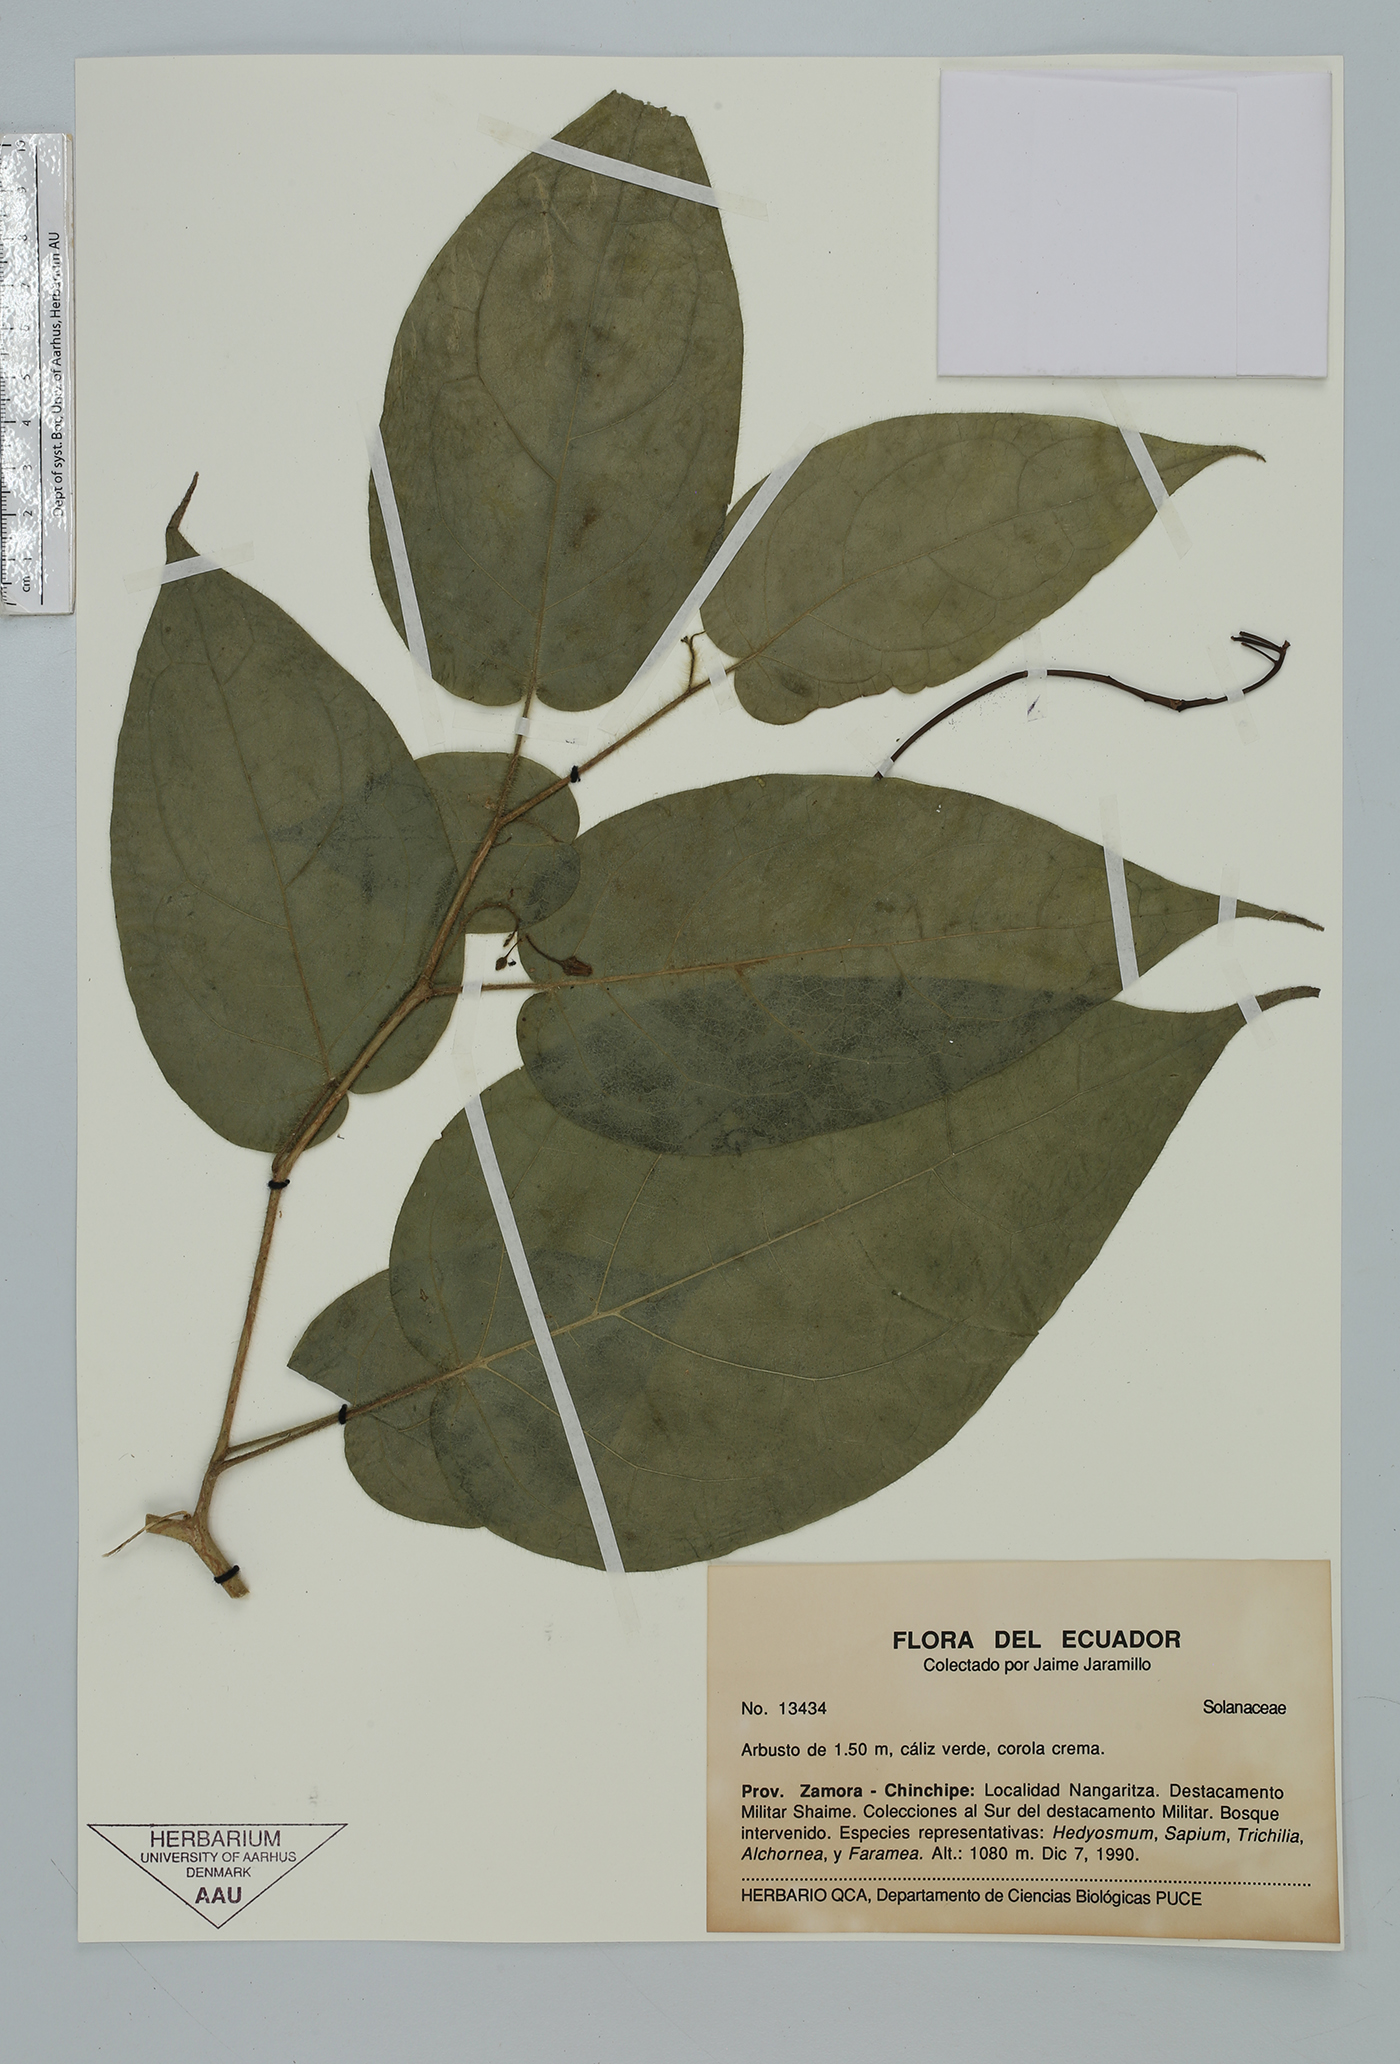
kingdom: Plantae
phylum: Tracheophyta
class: Magnoliopsida
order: Solanales
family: Solanaceae
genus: Solanum
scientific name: Solanum
